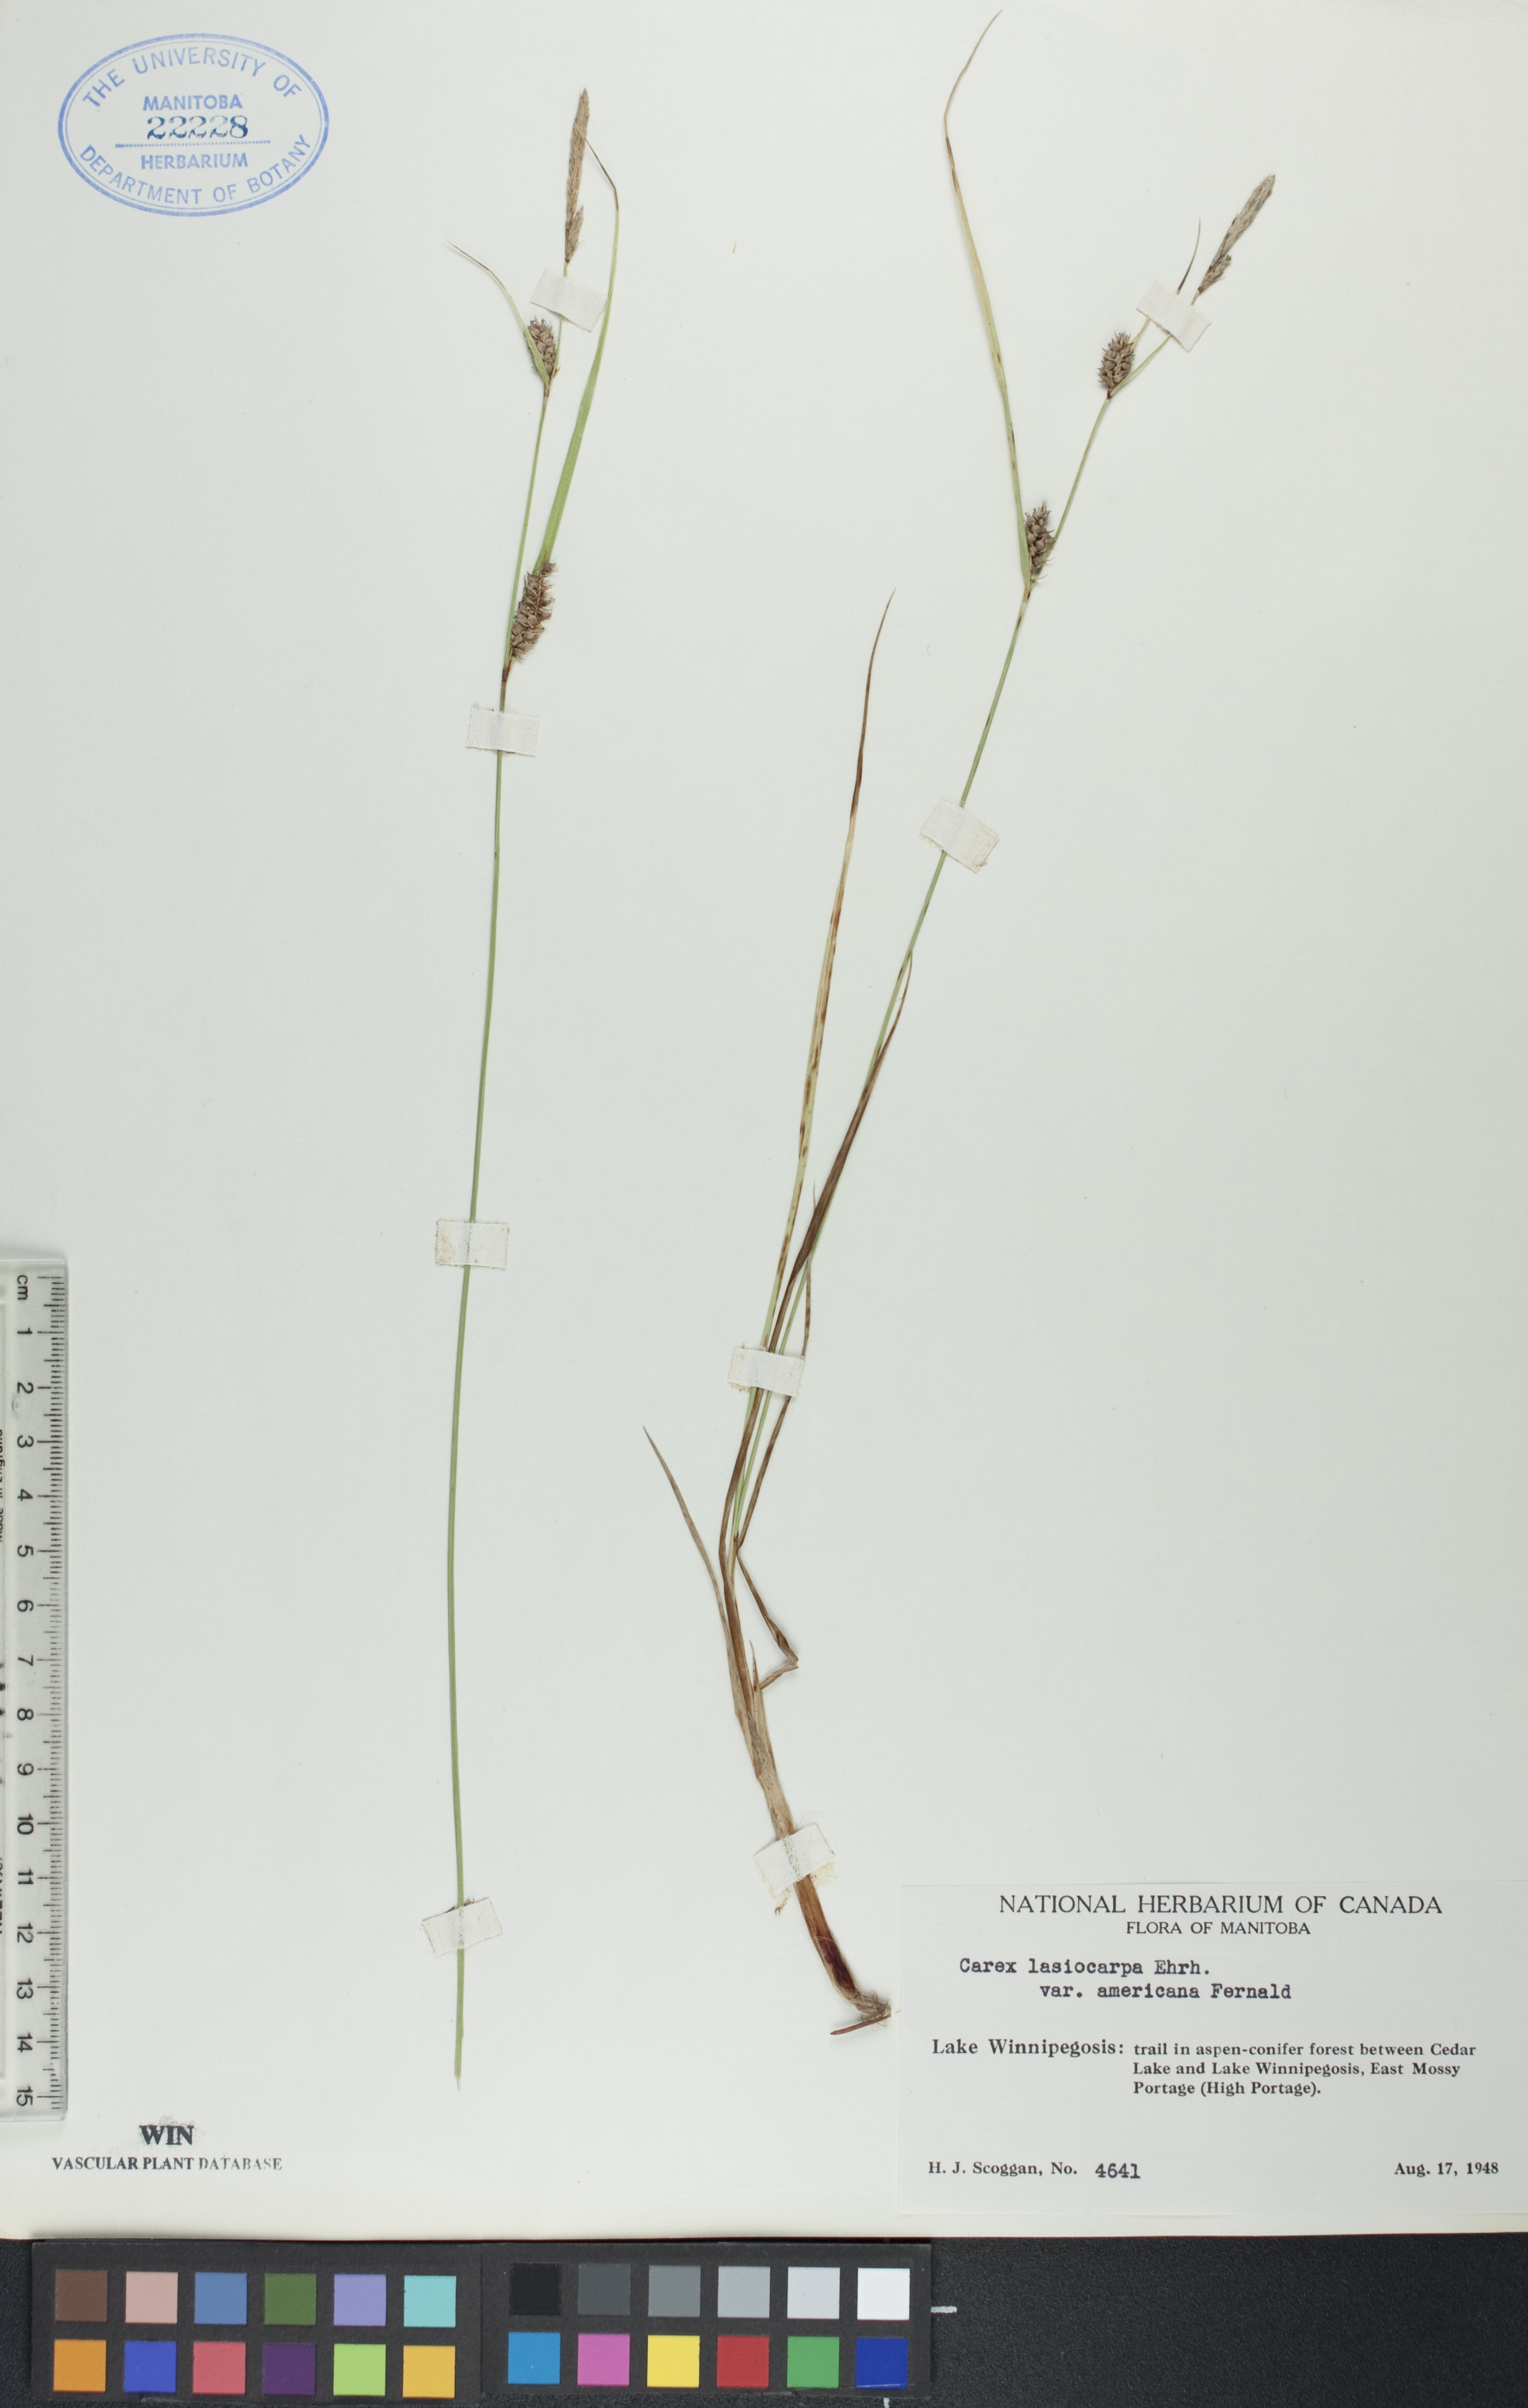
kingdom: Plantae
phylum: Tracheophyta
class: Liliopsida
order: Poales
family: Cyperaceae
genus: Carex
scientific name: Carex lasiocarpa
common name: Slender sedge
